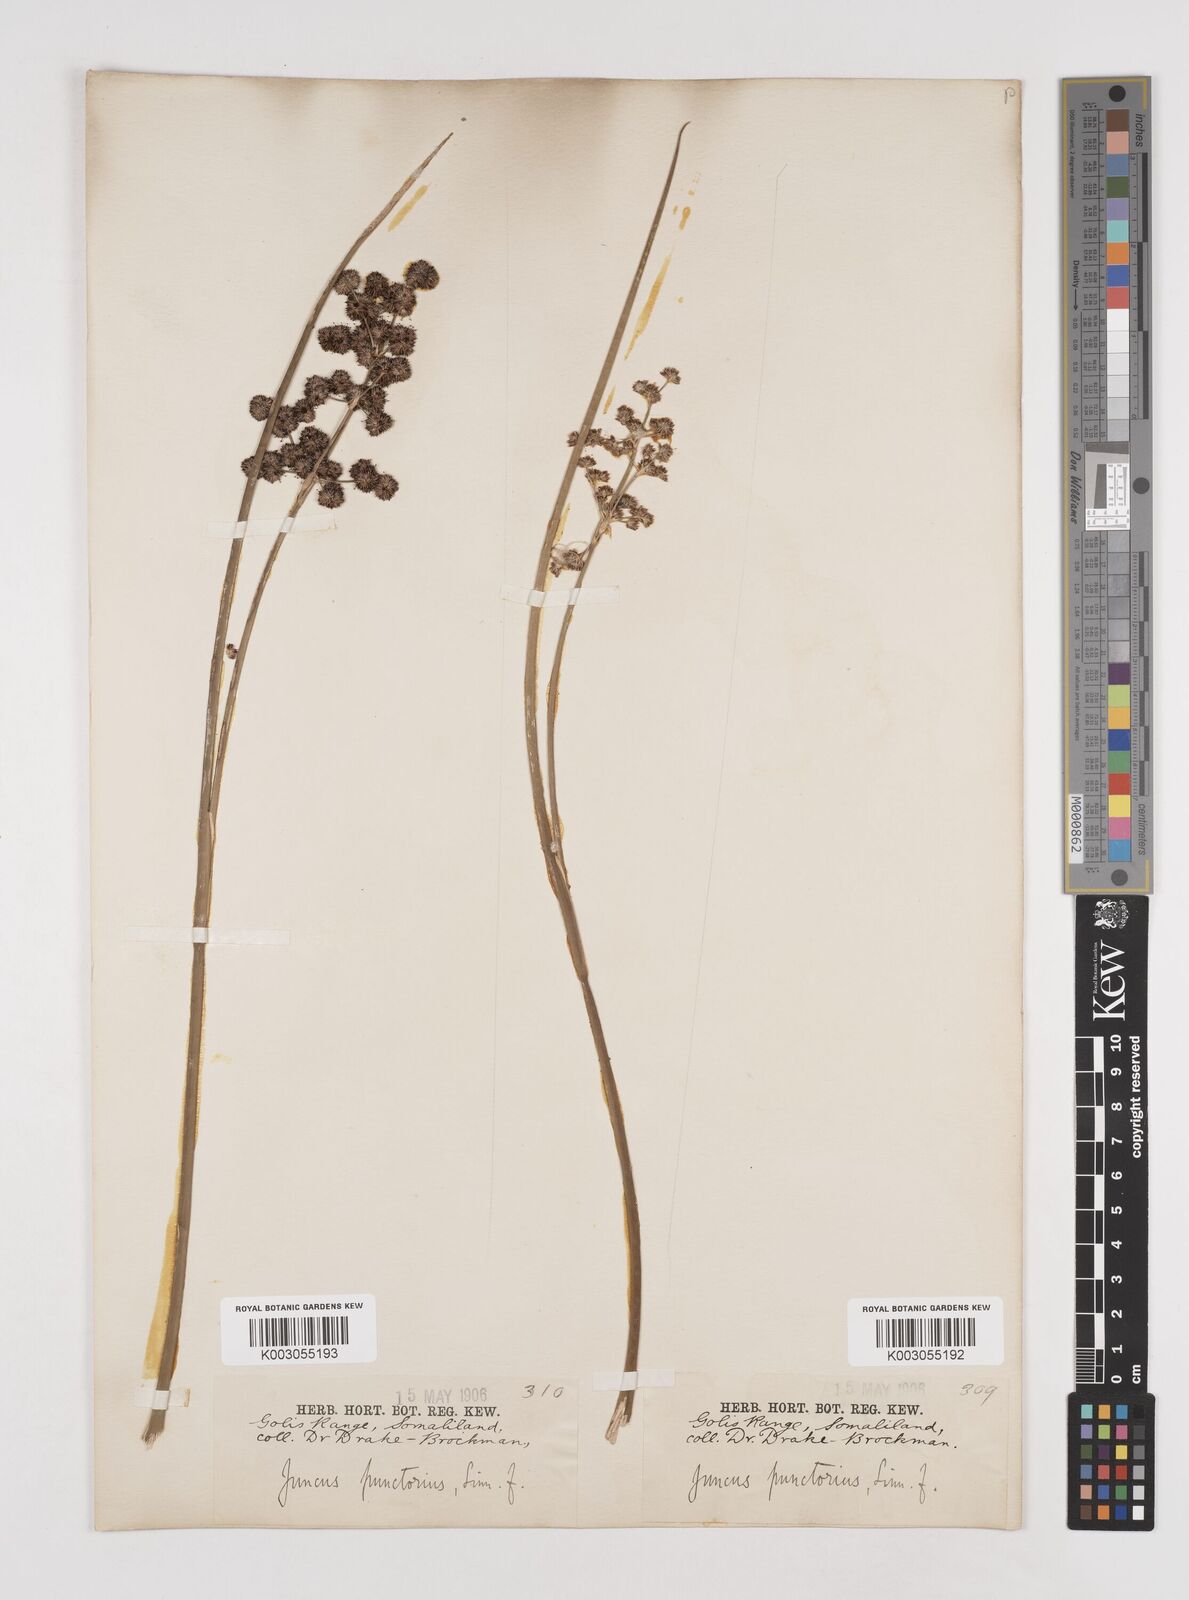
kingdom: Plantae
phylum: Tracheophyta
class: Liliopsida
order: Poales
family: Juncaceae
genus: Juncus
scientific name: Juncus punctorius
